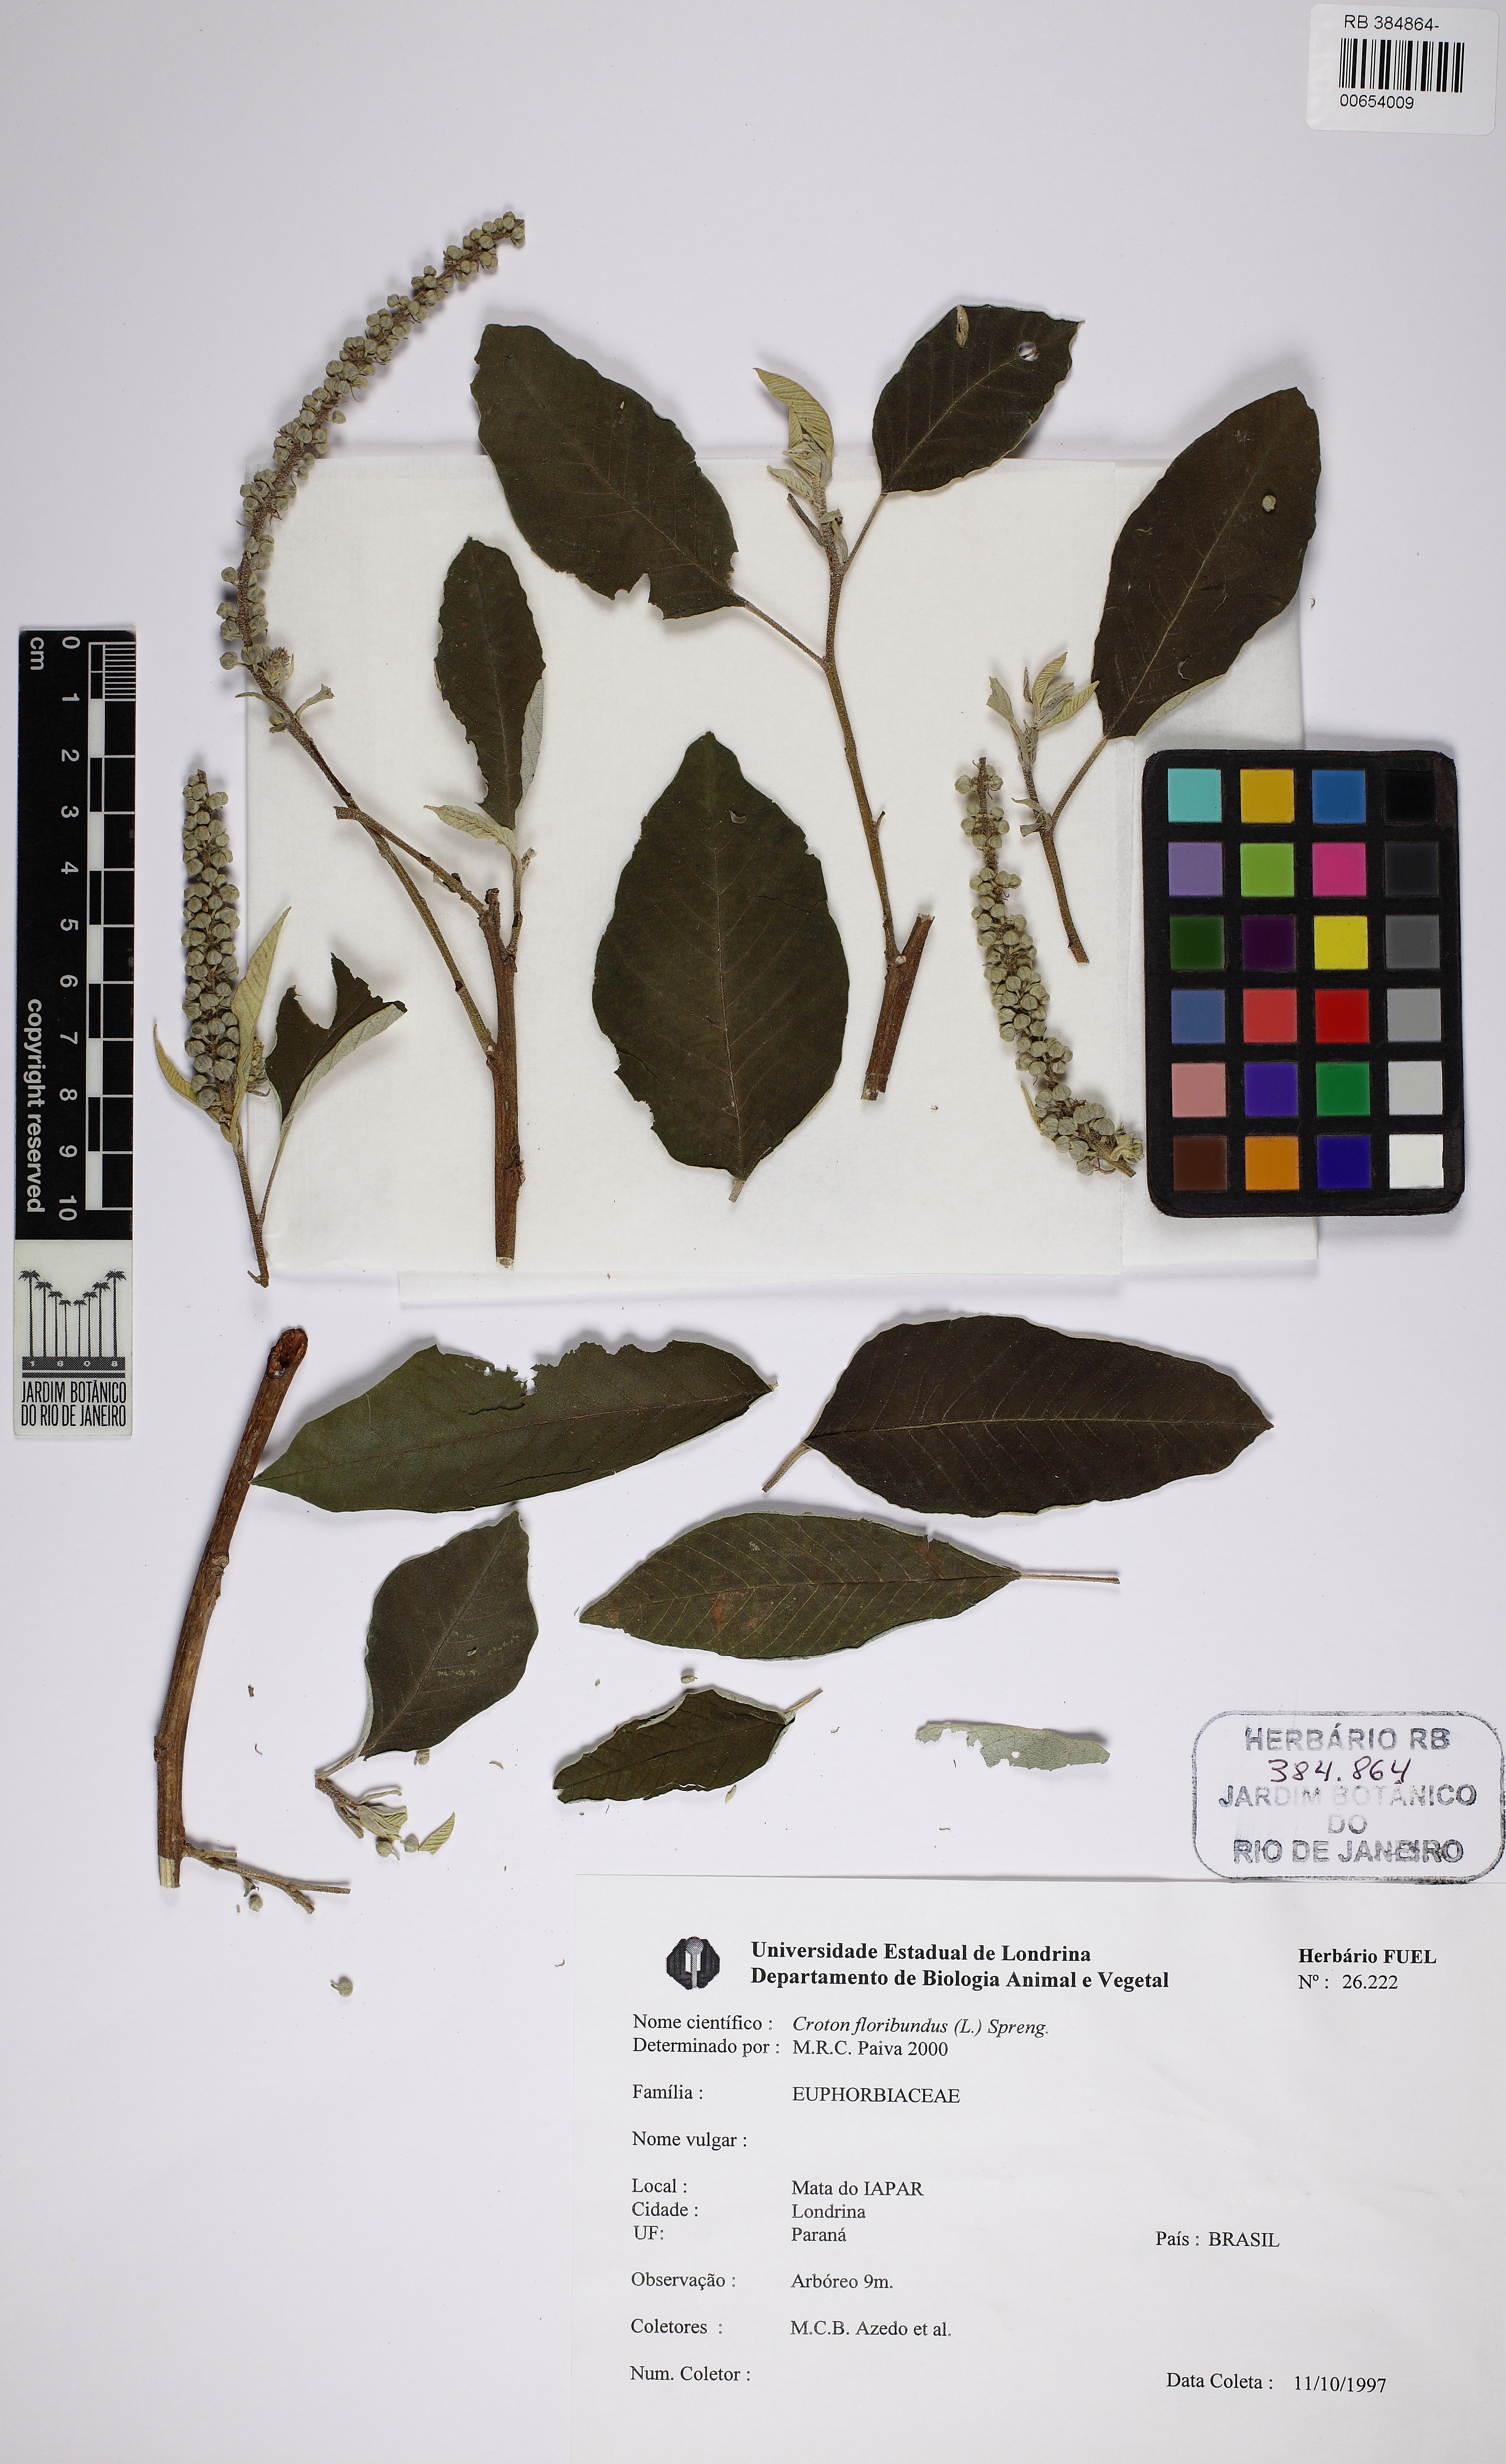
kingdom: Plantae
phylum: Tracheophyta
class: Magnoliopsida
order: Malpighiales
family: Euphorbiaceae
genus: Croton
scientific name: Croton floribundus
